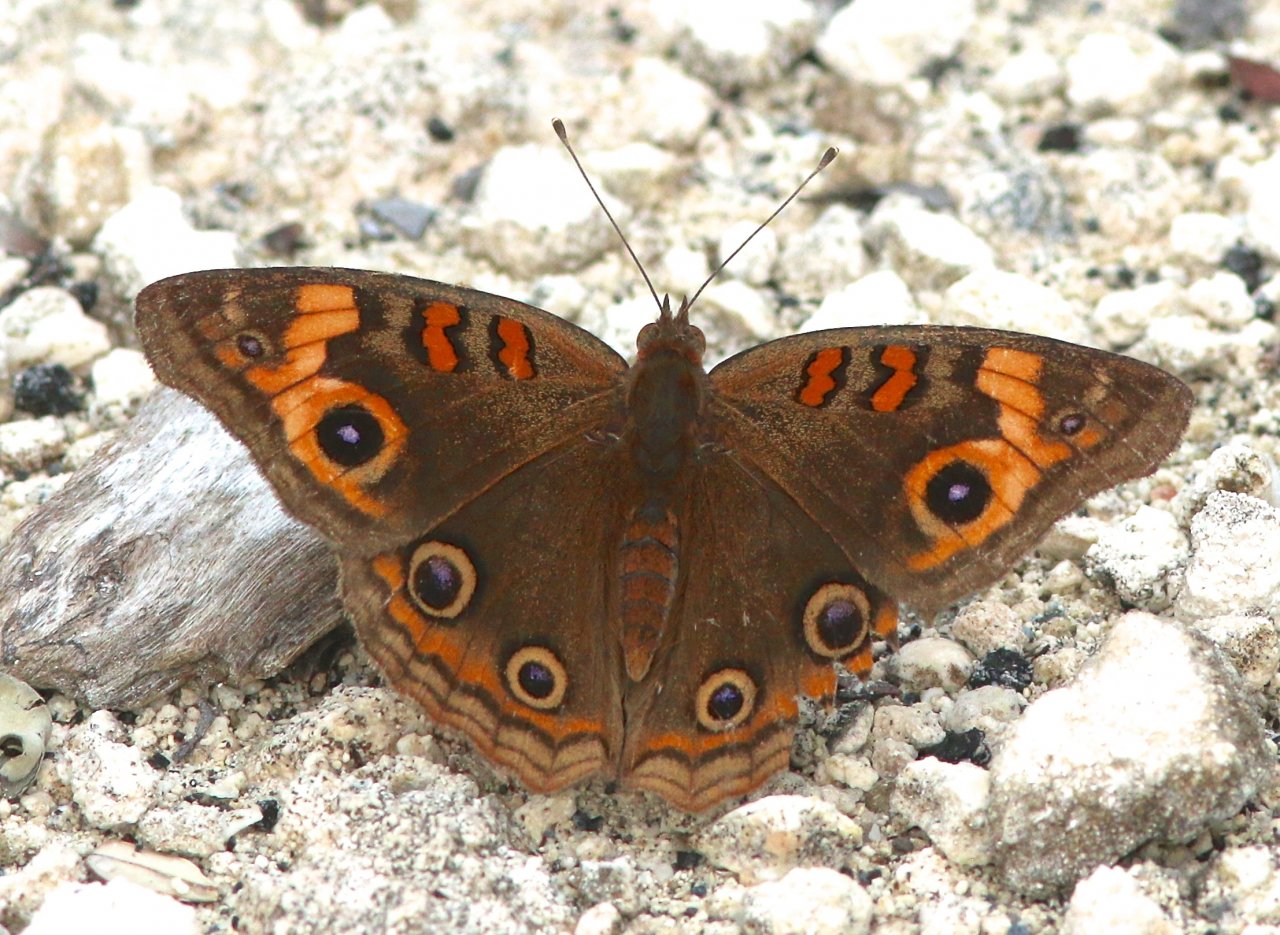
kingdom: Animalia
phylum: Arthropoda
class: Insecta
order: Lepidoptera
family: Nymphalidae
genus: Junonia
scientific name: Junonia evarete
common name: Mangrove Buckeye
